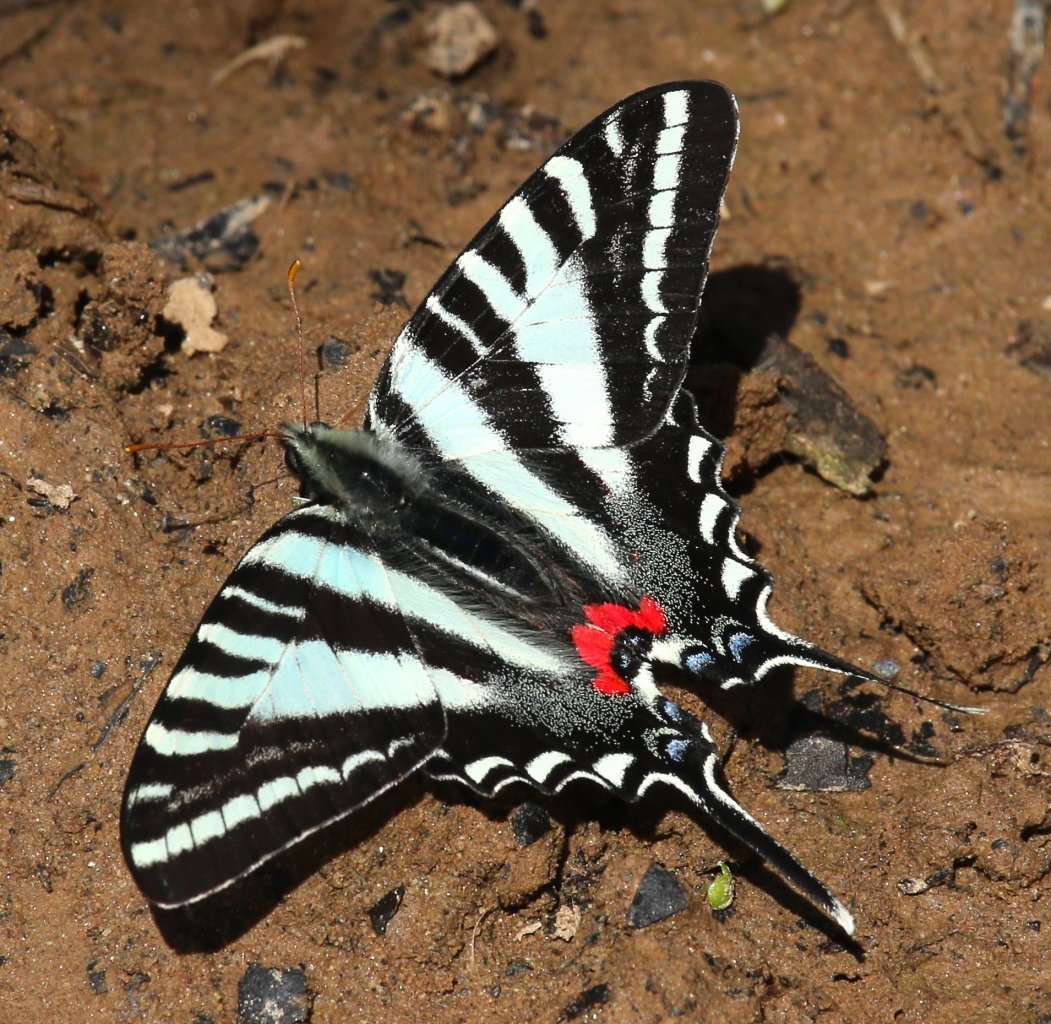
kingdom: Animalia
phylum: Arthropoda
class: Insecta
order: Lepidoptera
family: Papilionidae
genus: Protographium
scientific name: Protographium marcellus
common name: Zebra Swallowtail
